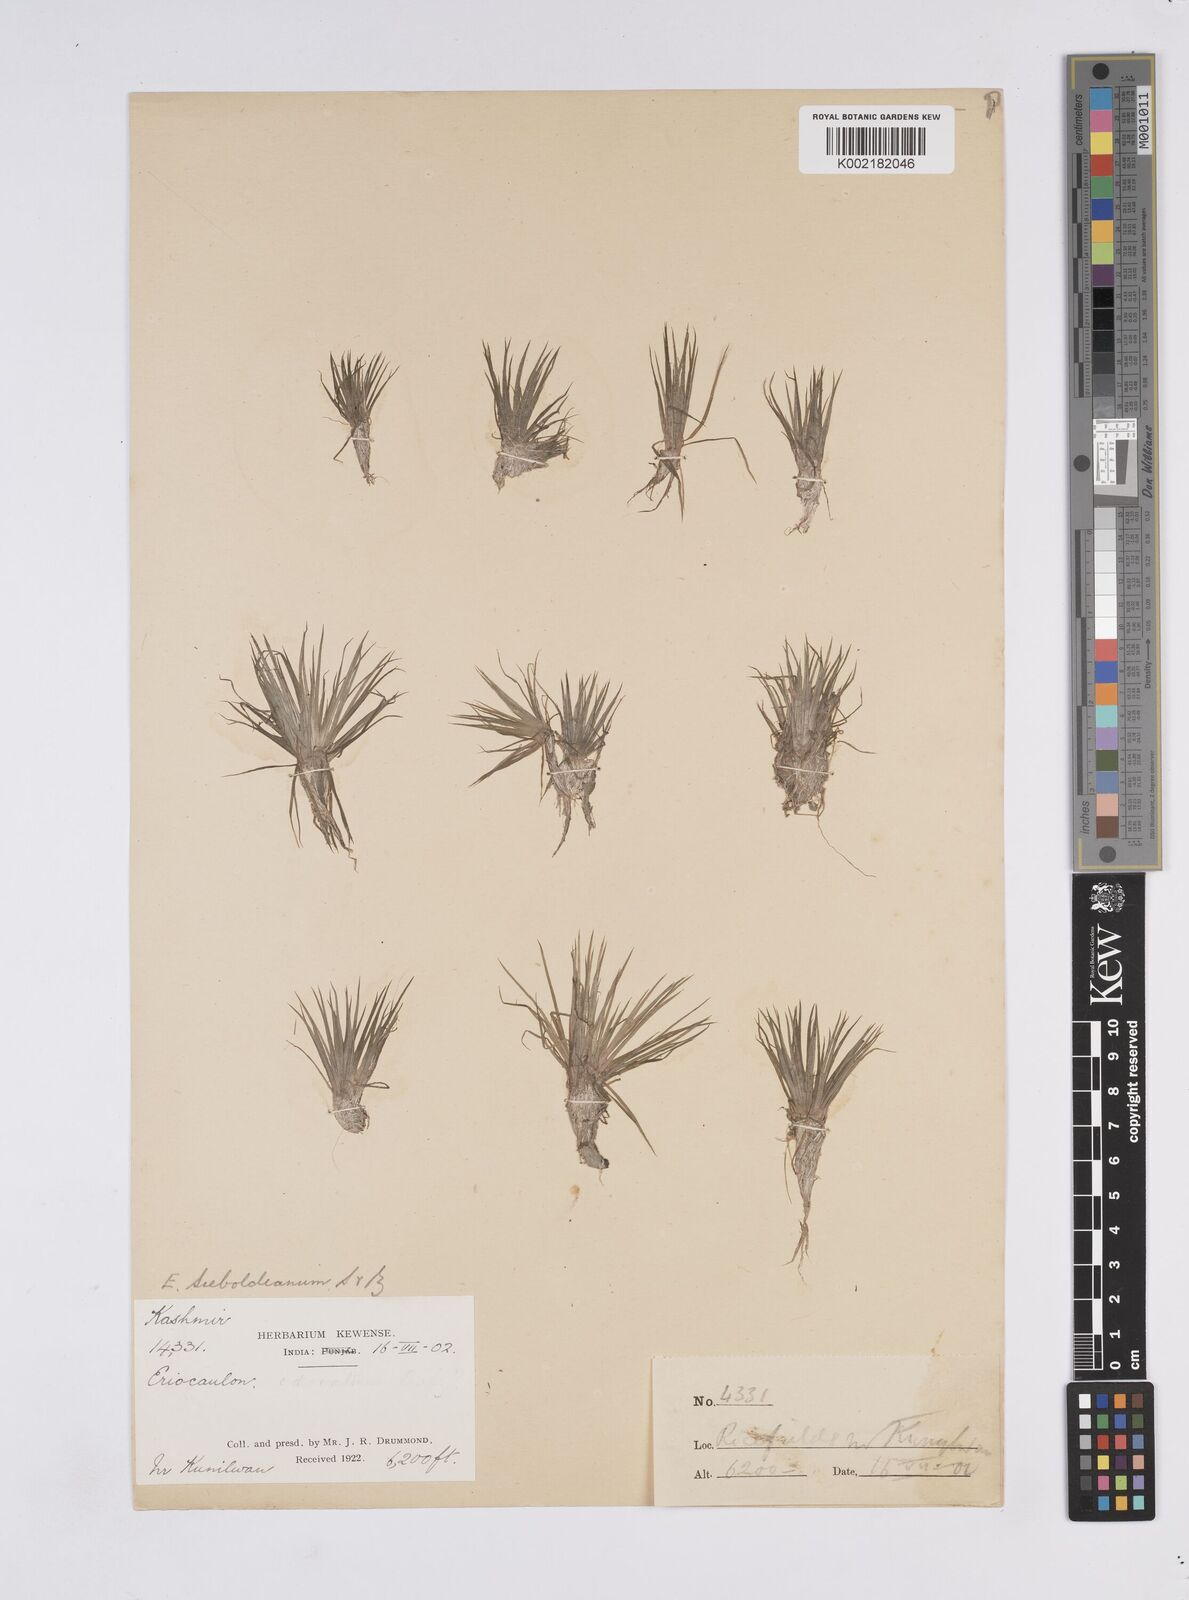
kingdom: Plantae
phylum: Tracheophyta
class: Liliopsida
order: Poales
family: Eriocaulaceae
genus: Eriocaulon
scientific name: Eriocaulon cinereum
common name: Ashy pipewort
